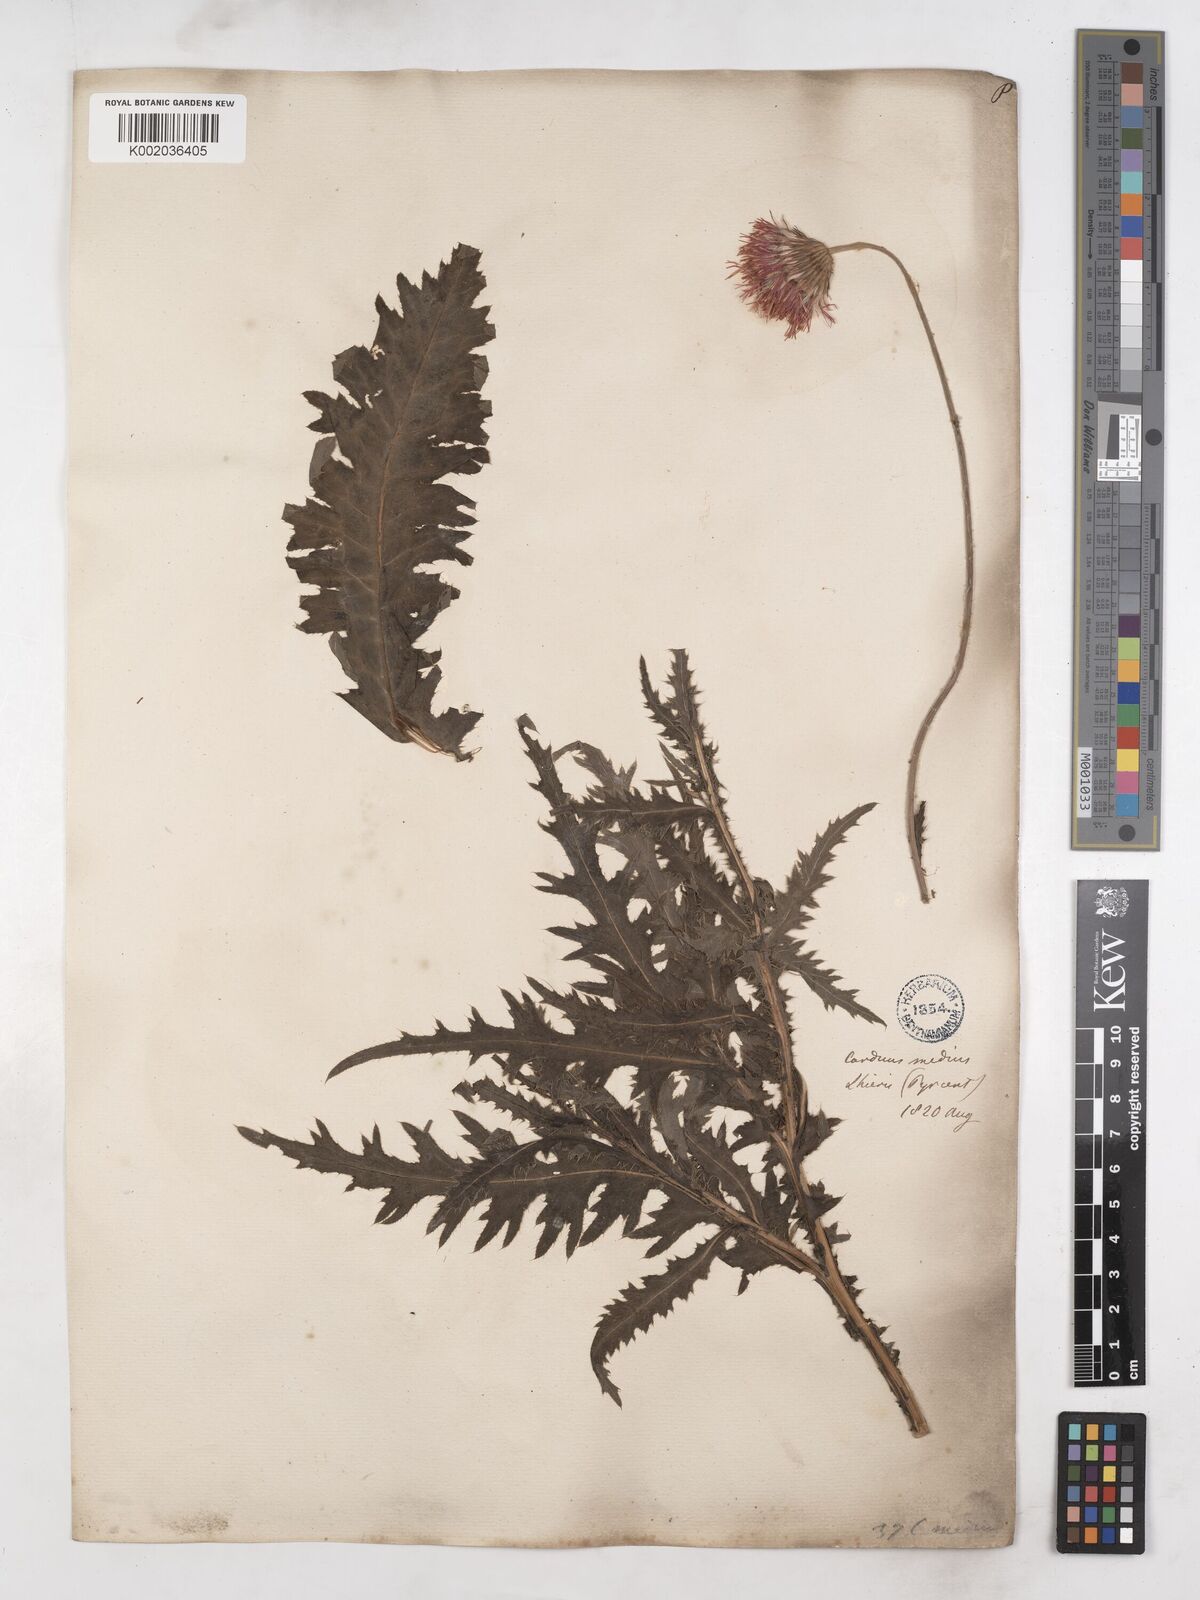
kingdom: Plantae
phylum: Tracheophyta
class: Magnoliopsida
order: Asterales
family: Asteraceae
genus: Carduus
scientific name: Carduus defloratus
